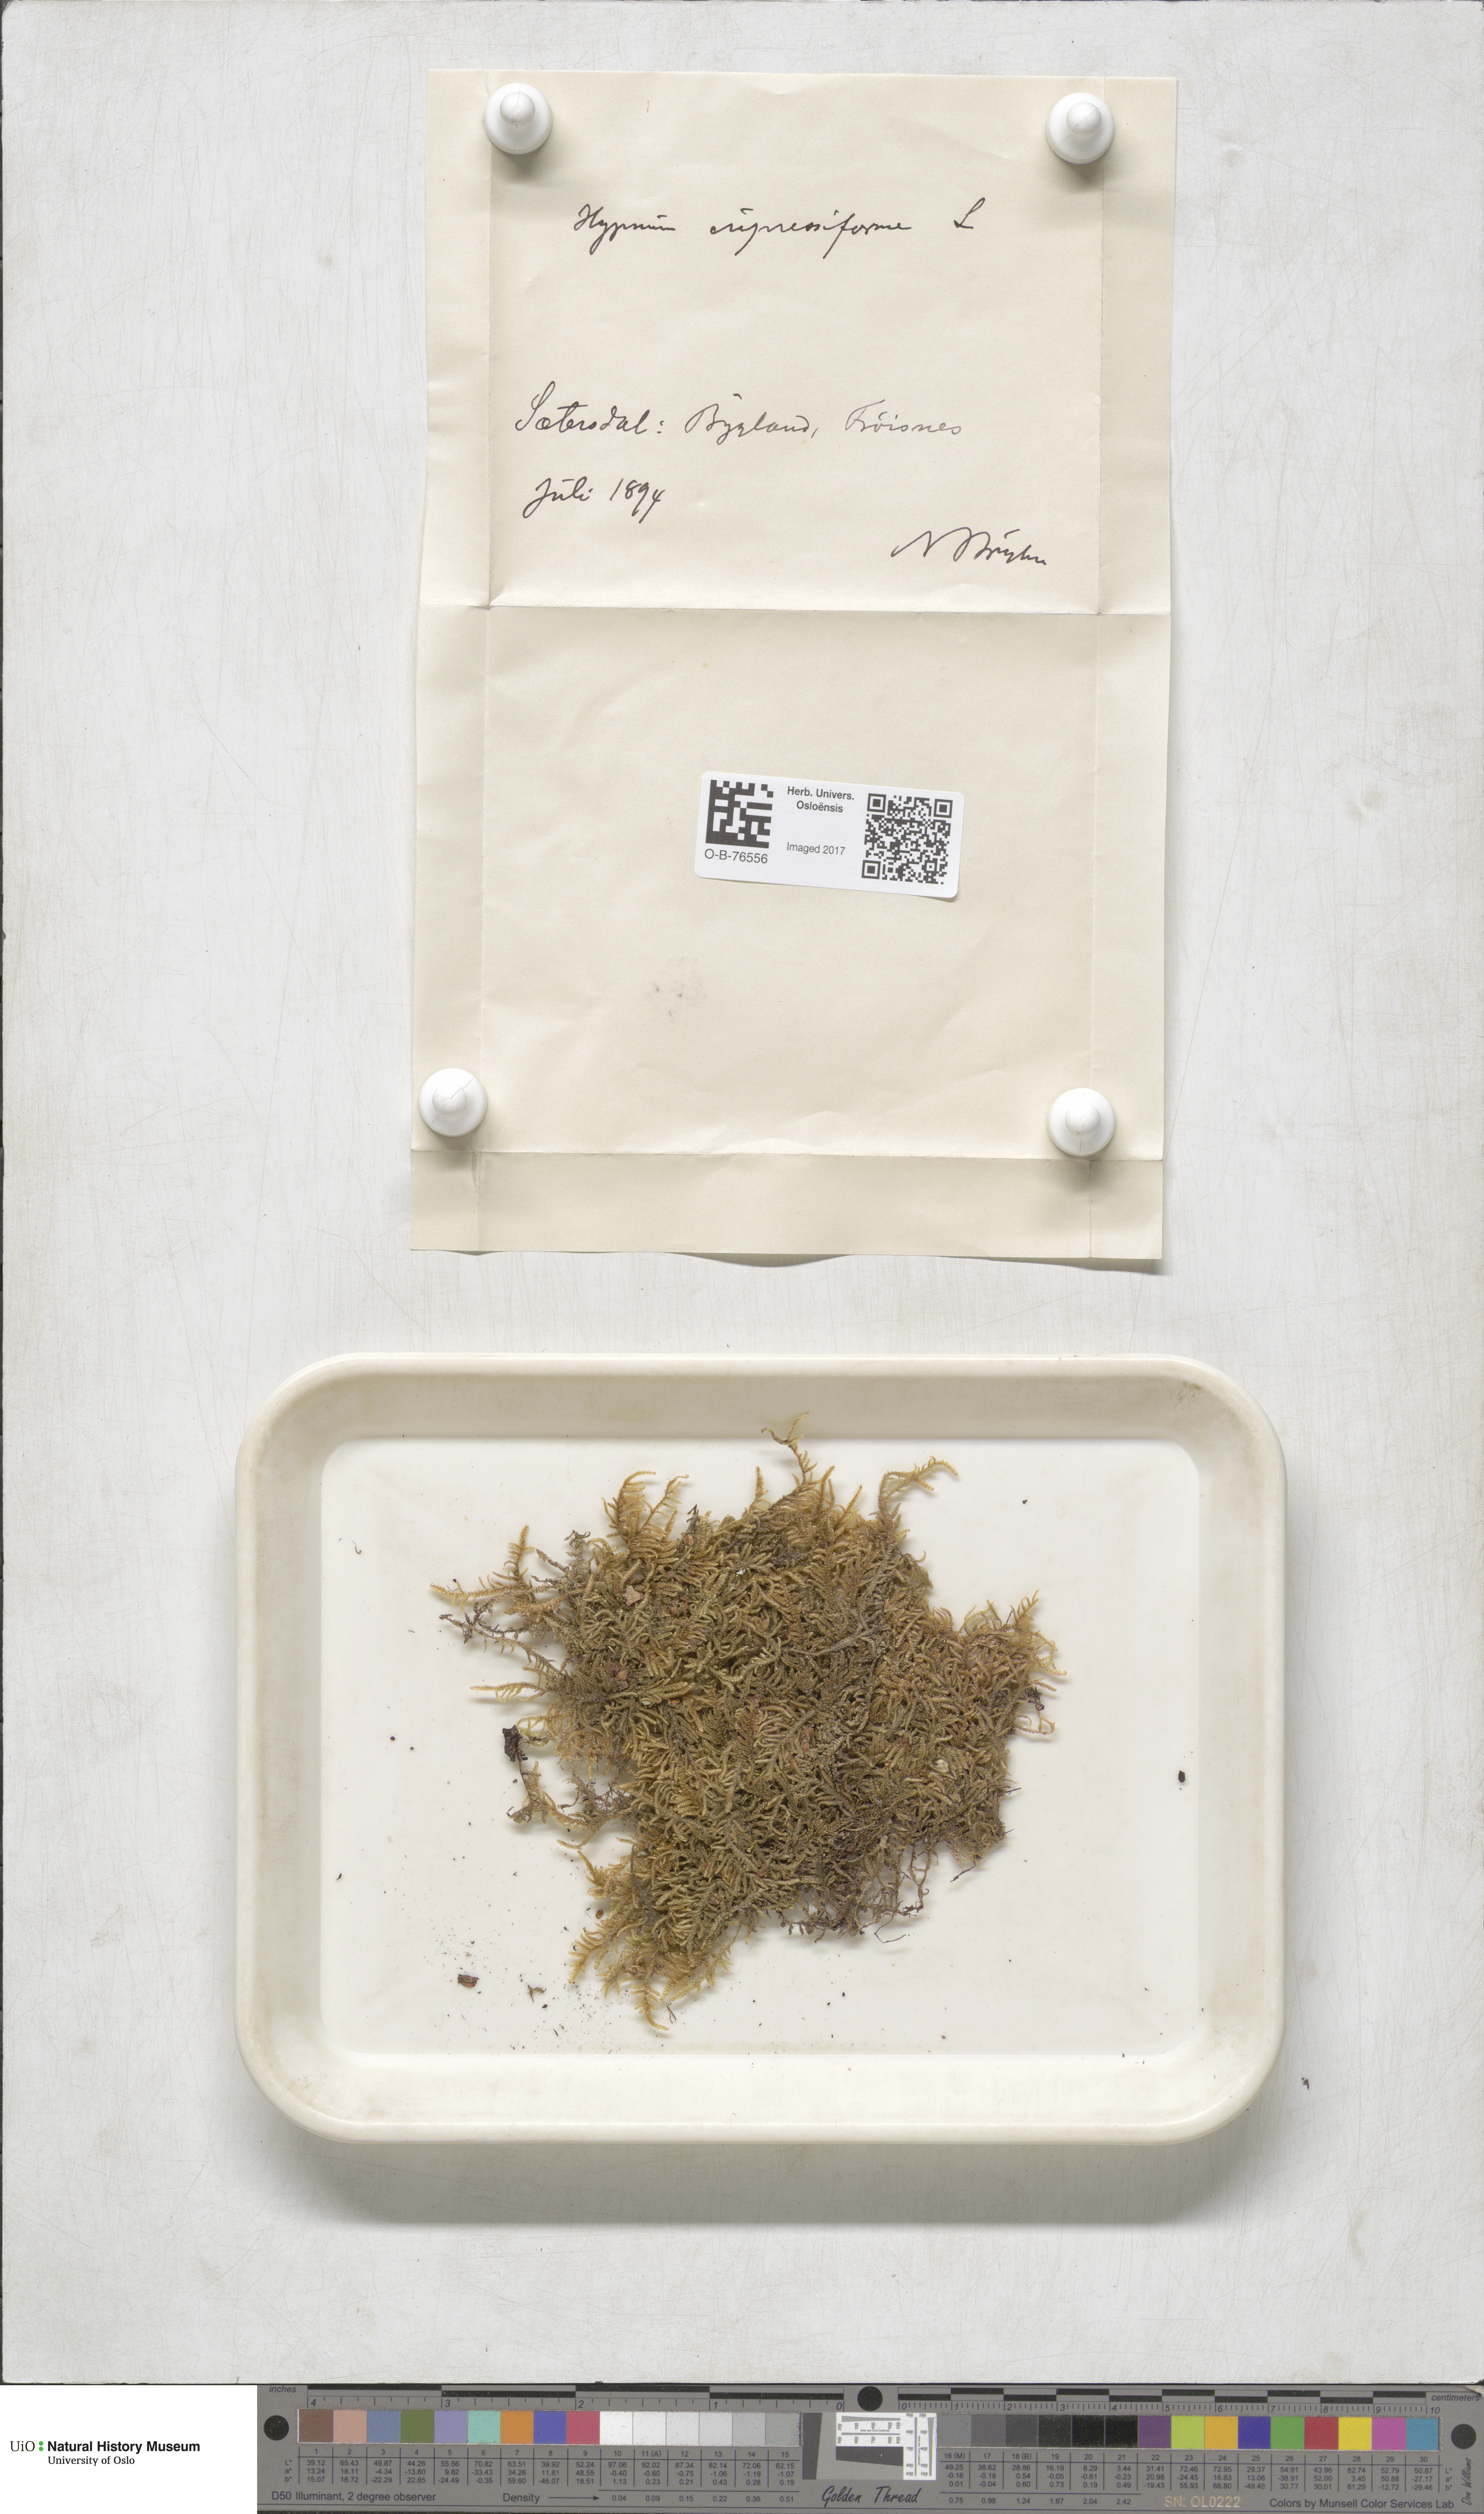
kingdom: Plantae
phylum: Bryophyta
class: Bryopsida
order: Hypnales
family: Hypnaceae
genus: Hypnum
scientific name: Hypnum cupressiforme
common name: Cypress-leaved plait-moss
